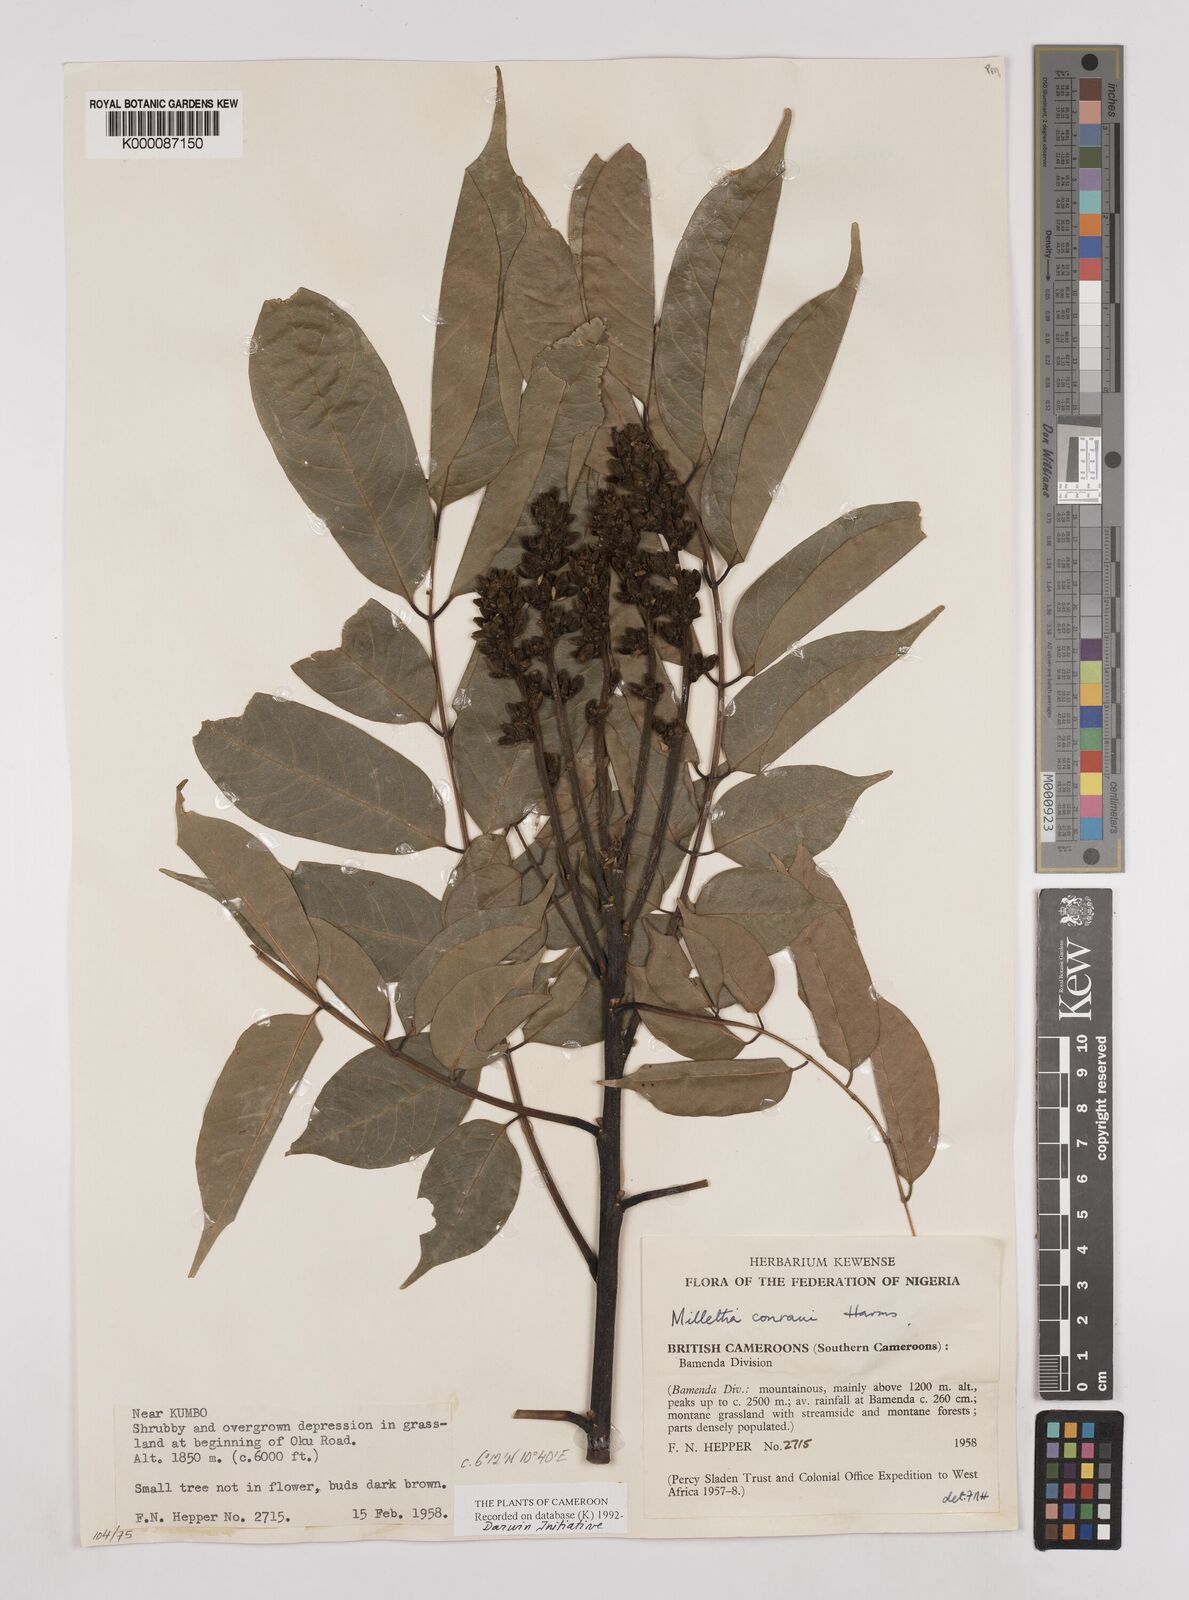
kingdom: Plantae
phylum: Tracheophyta
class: Magnoliopsida
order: Fabales
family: Fabaceae
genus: Millettia
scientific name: Millettia conraui
